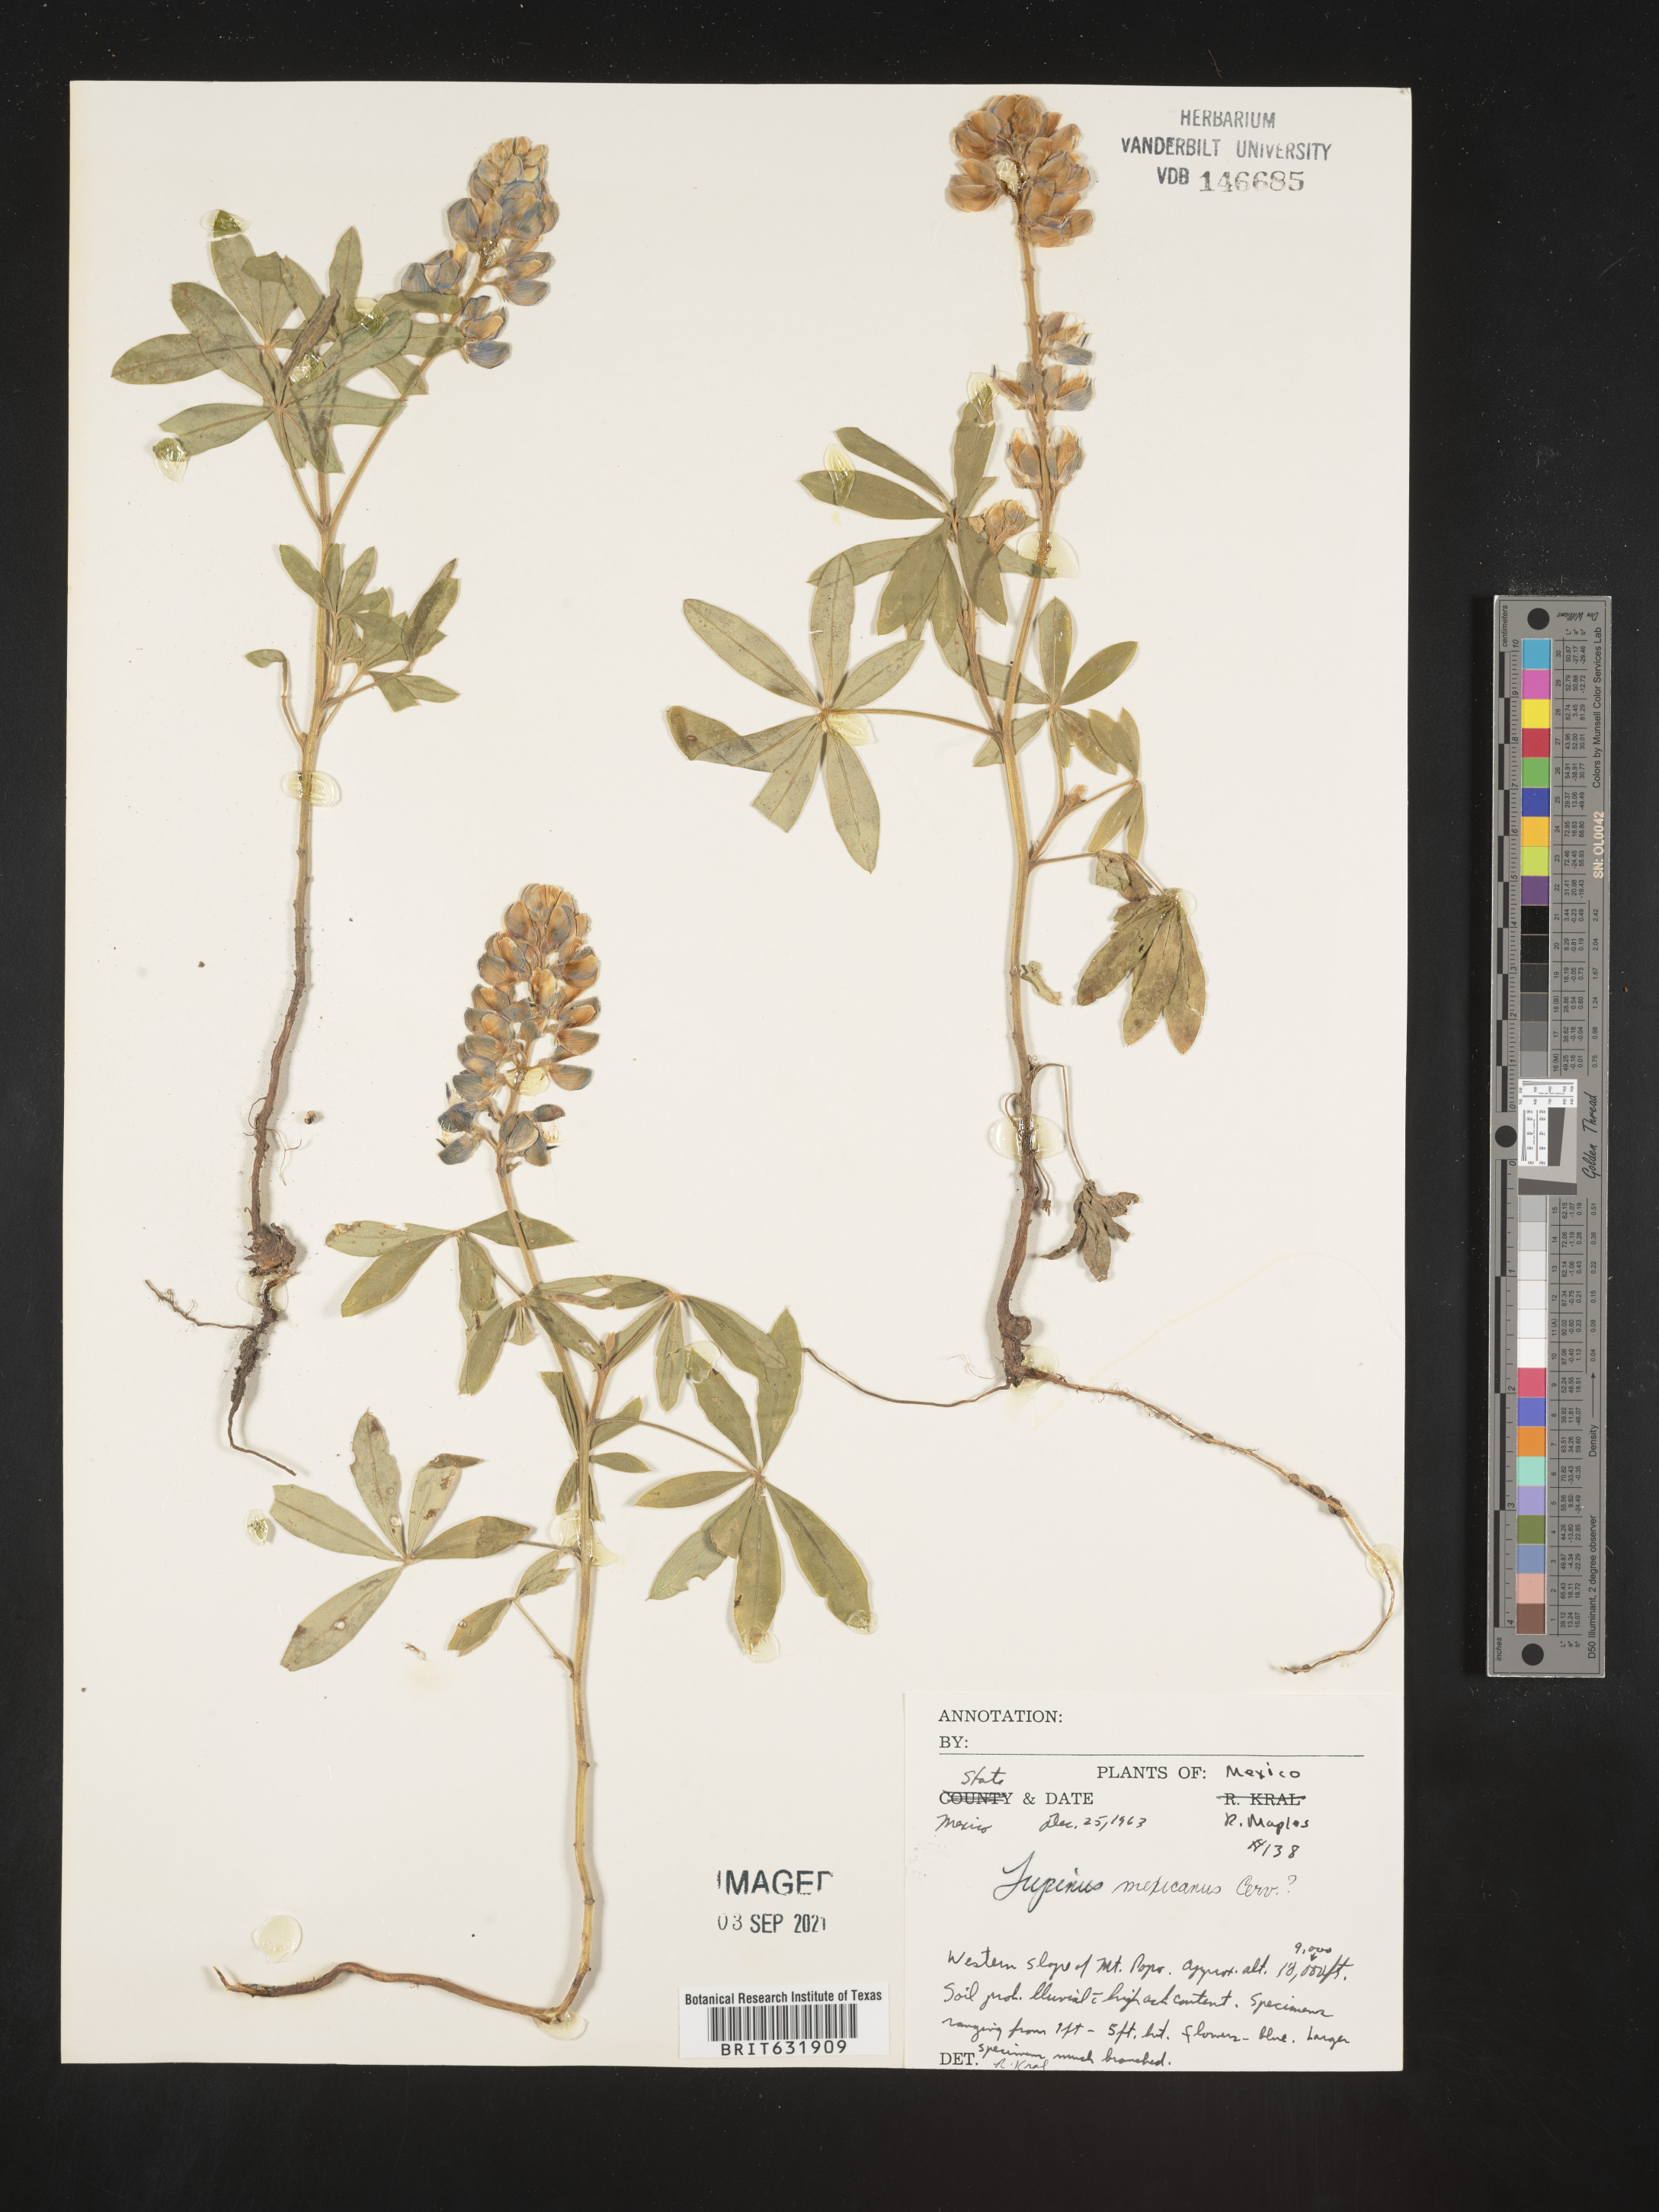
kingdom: Plantae
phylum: Tracheophyta
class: Magnoliopsida
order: Fabales
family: Fabaceae
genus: Lupinus
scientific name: Lupinus
